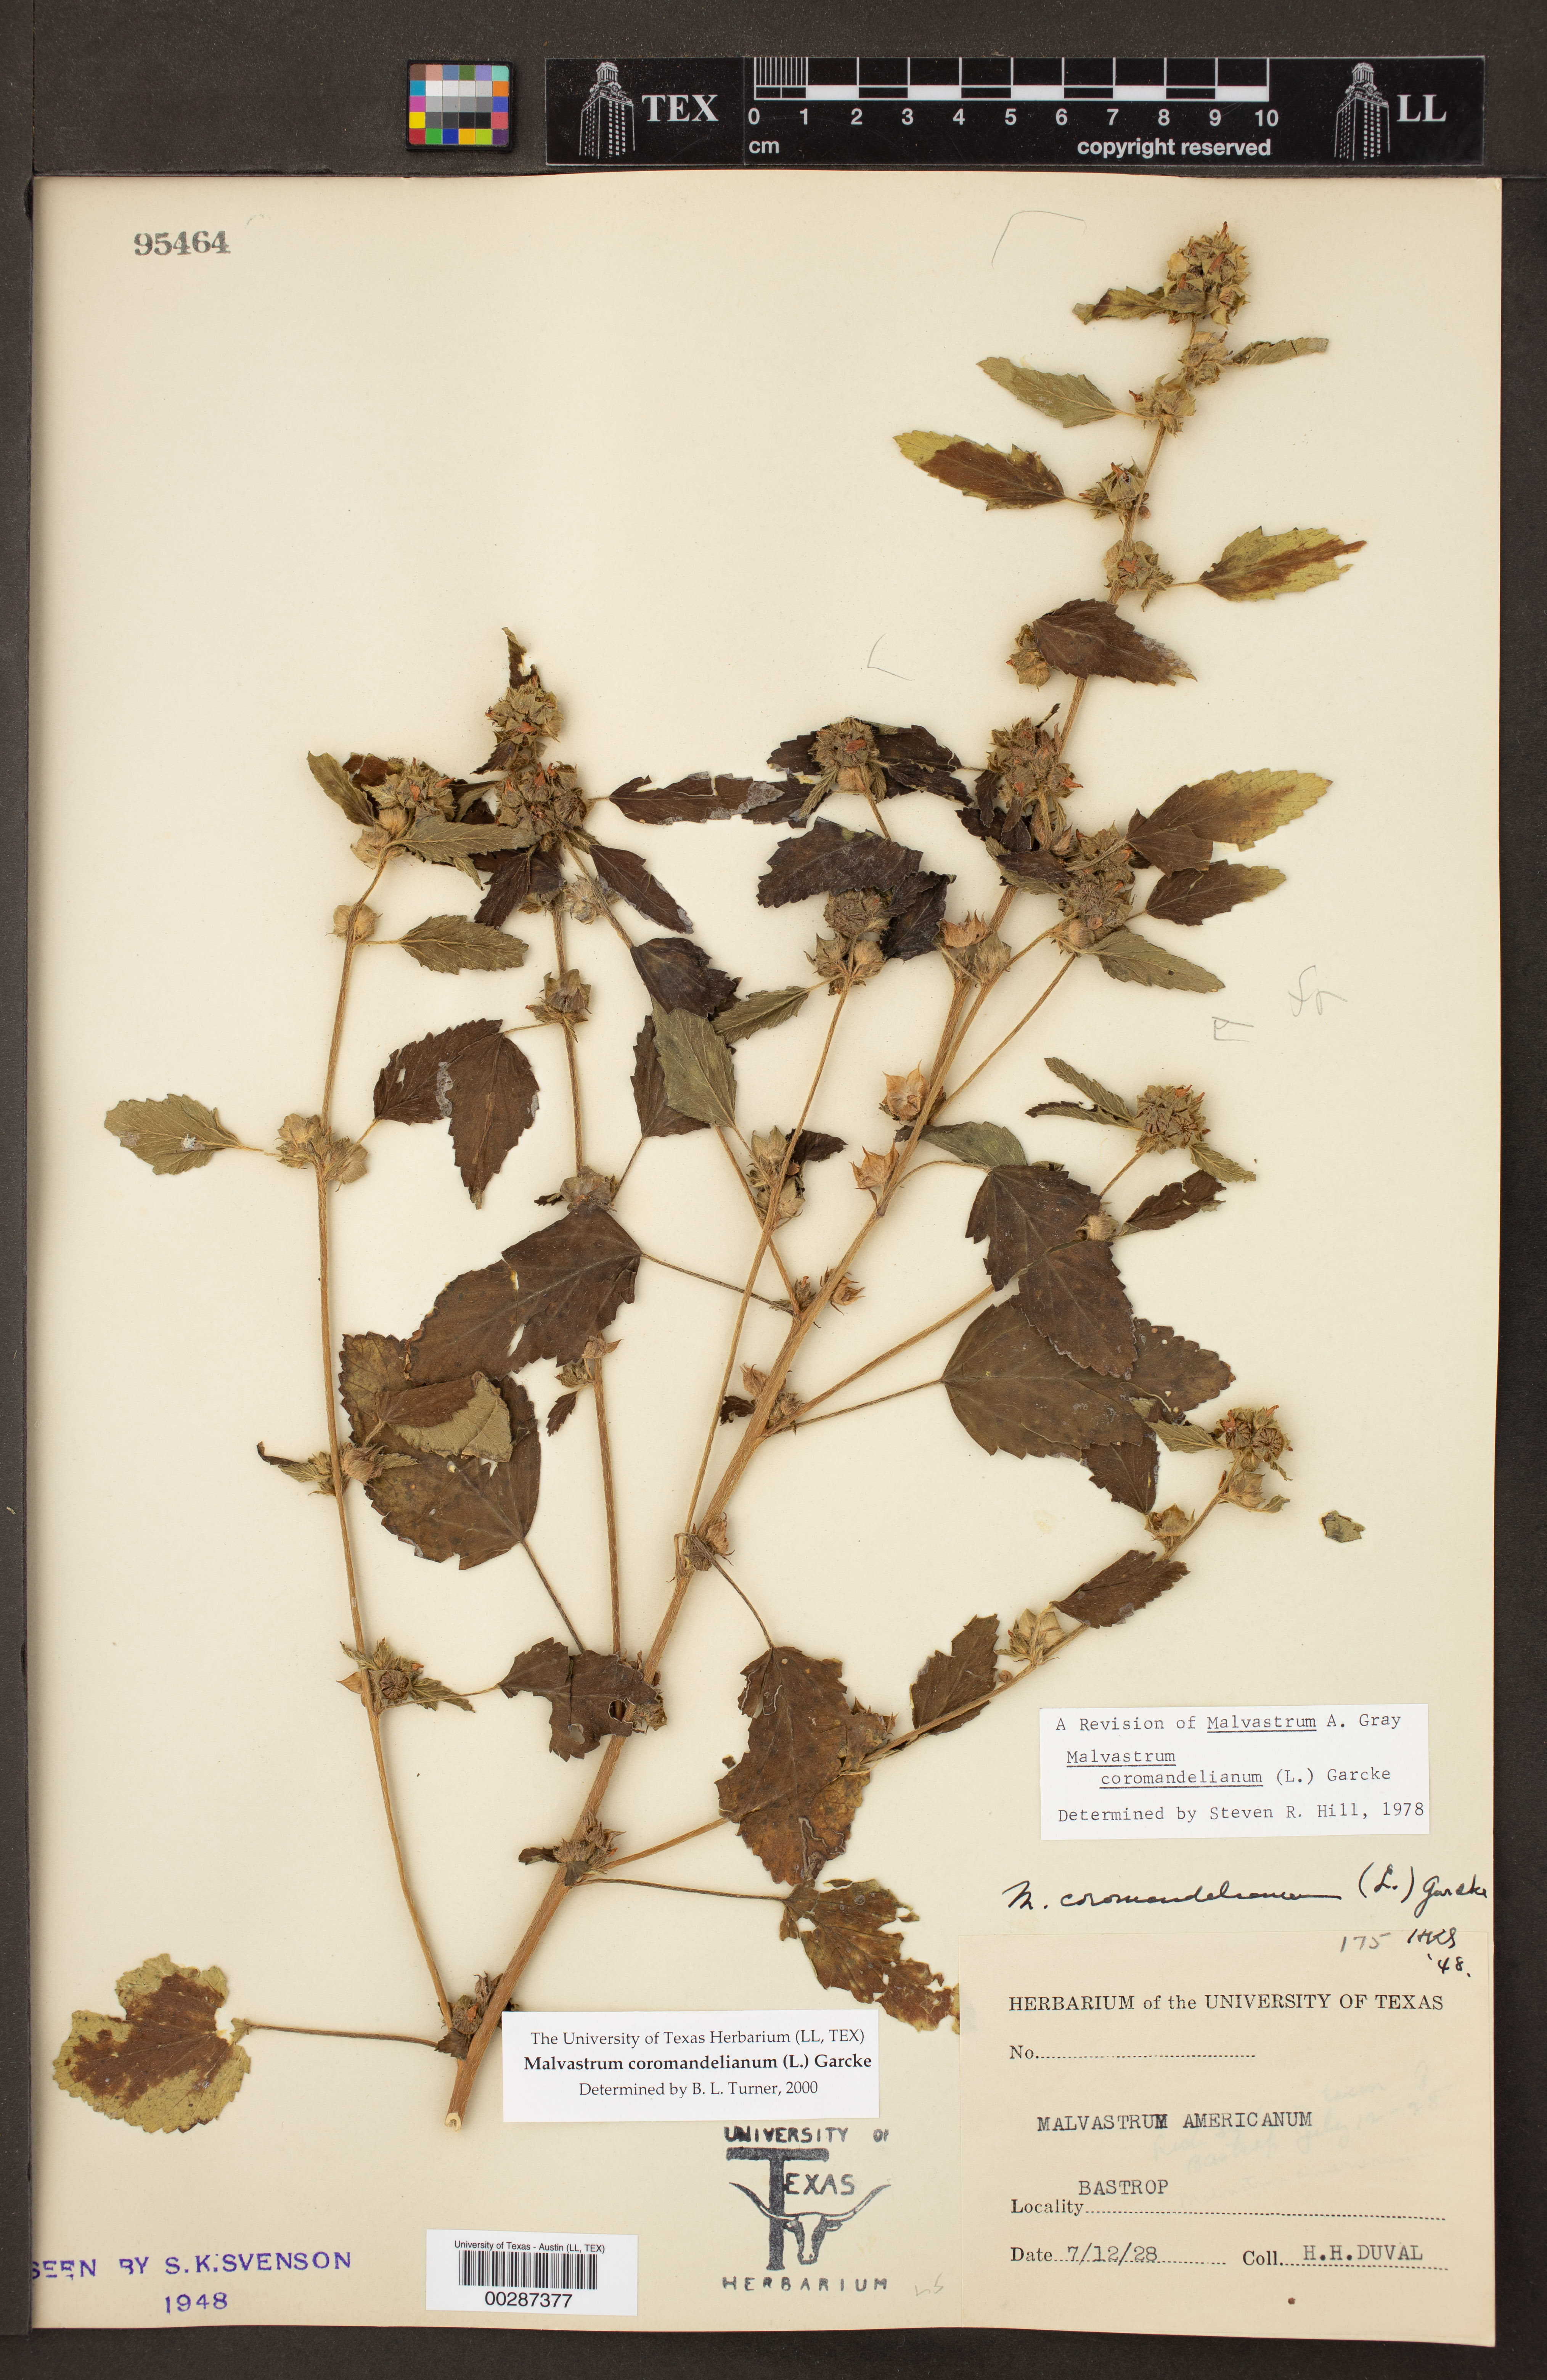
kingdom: Plantae
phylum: Tracheophyta
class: Magnoliopsida
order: Malvales
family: Malvaceae
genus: Malvastrum
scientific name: Malvastrum coromandelianum
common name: Threelobe false mallow
